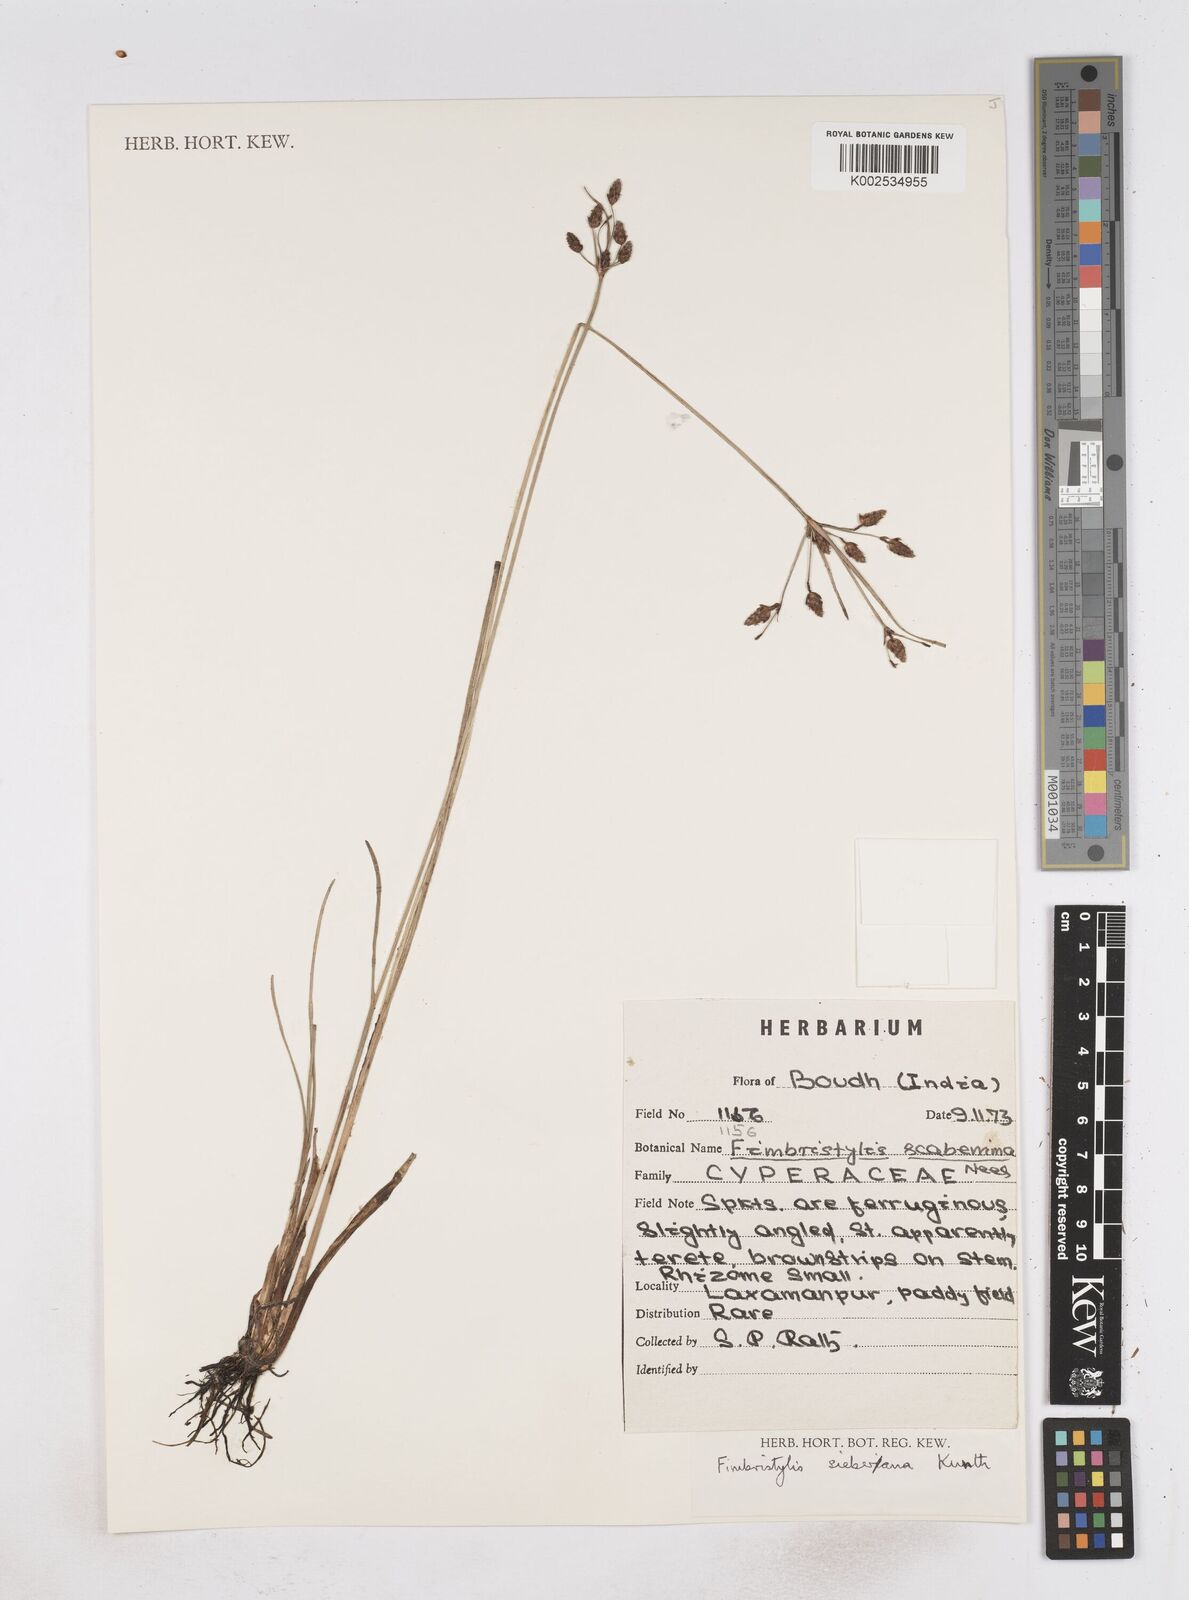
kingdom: Plantae
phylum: Tracheophyta
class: Liliopsida
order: Poales
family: Cyperaceae
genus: Fimbristylis
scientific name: Fimbristylis ferruginea
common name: West indian fimbry
